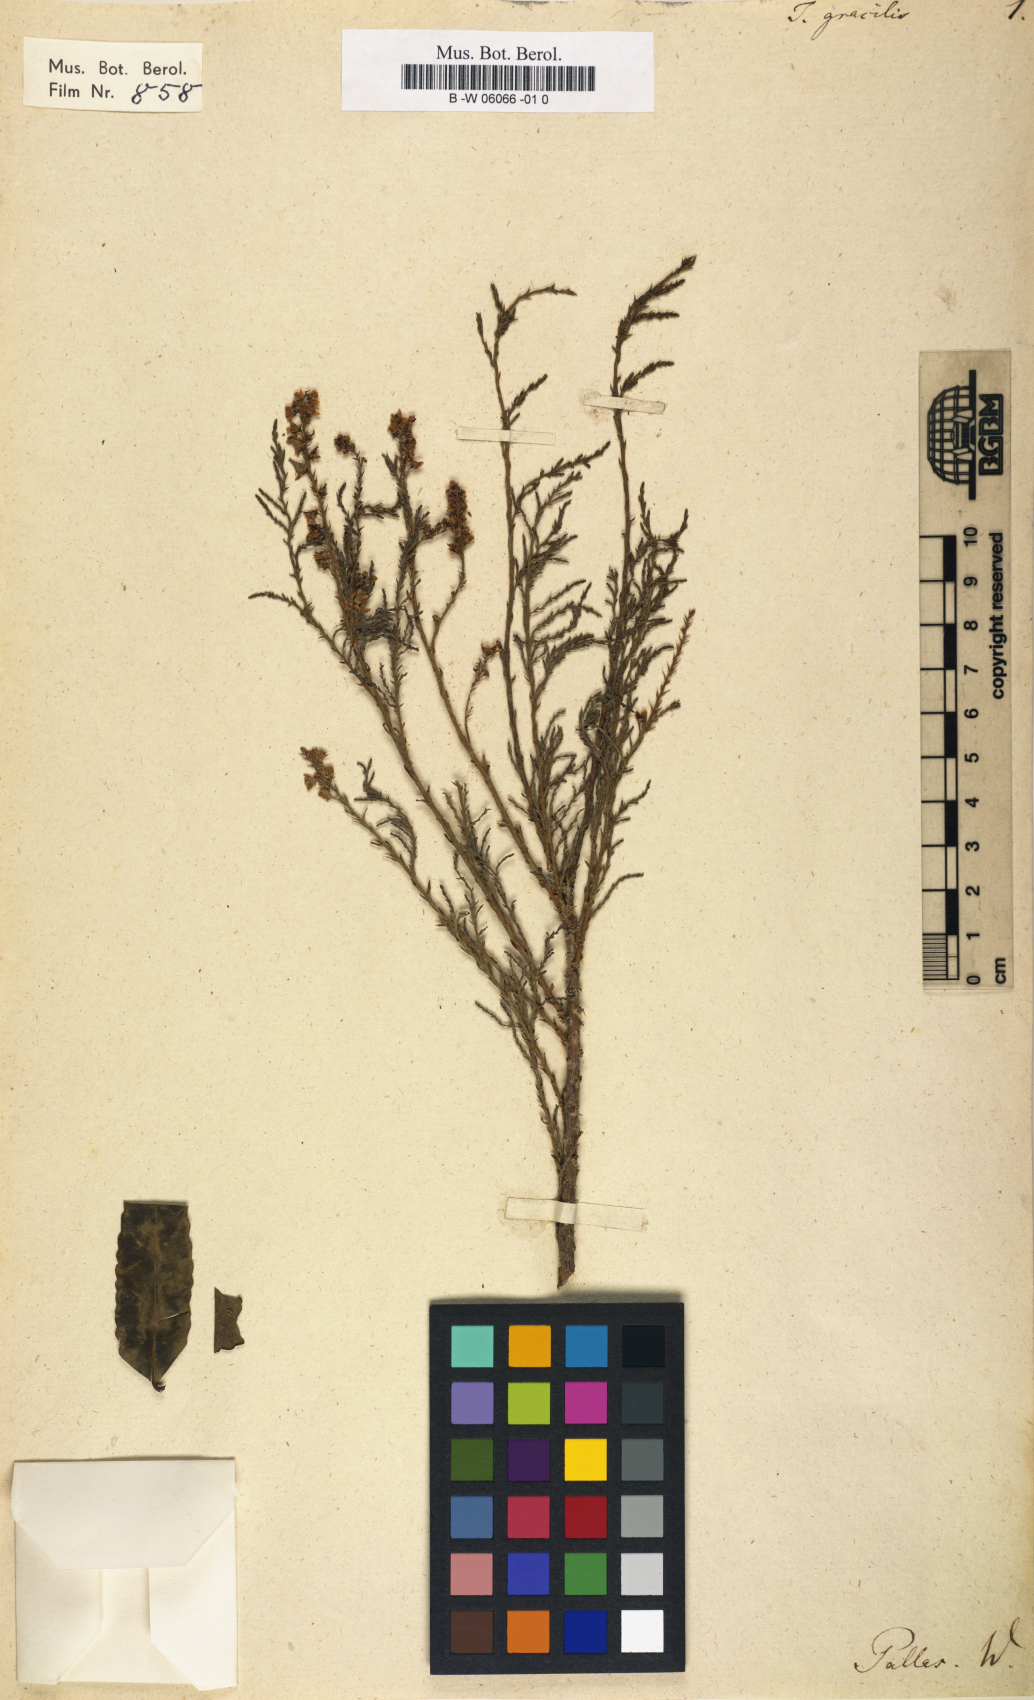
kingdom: Plantae
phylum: Tracheophyta
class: Magnoliopsida
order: Caryophyllales
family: Tamaricaceae
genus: Tamarix
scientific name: Tamarix gracilis
